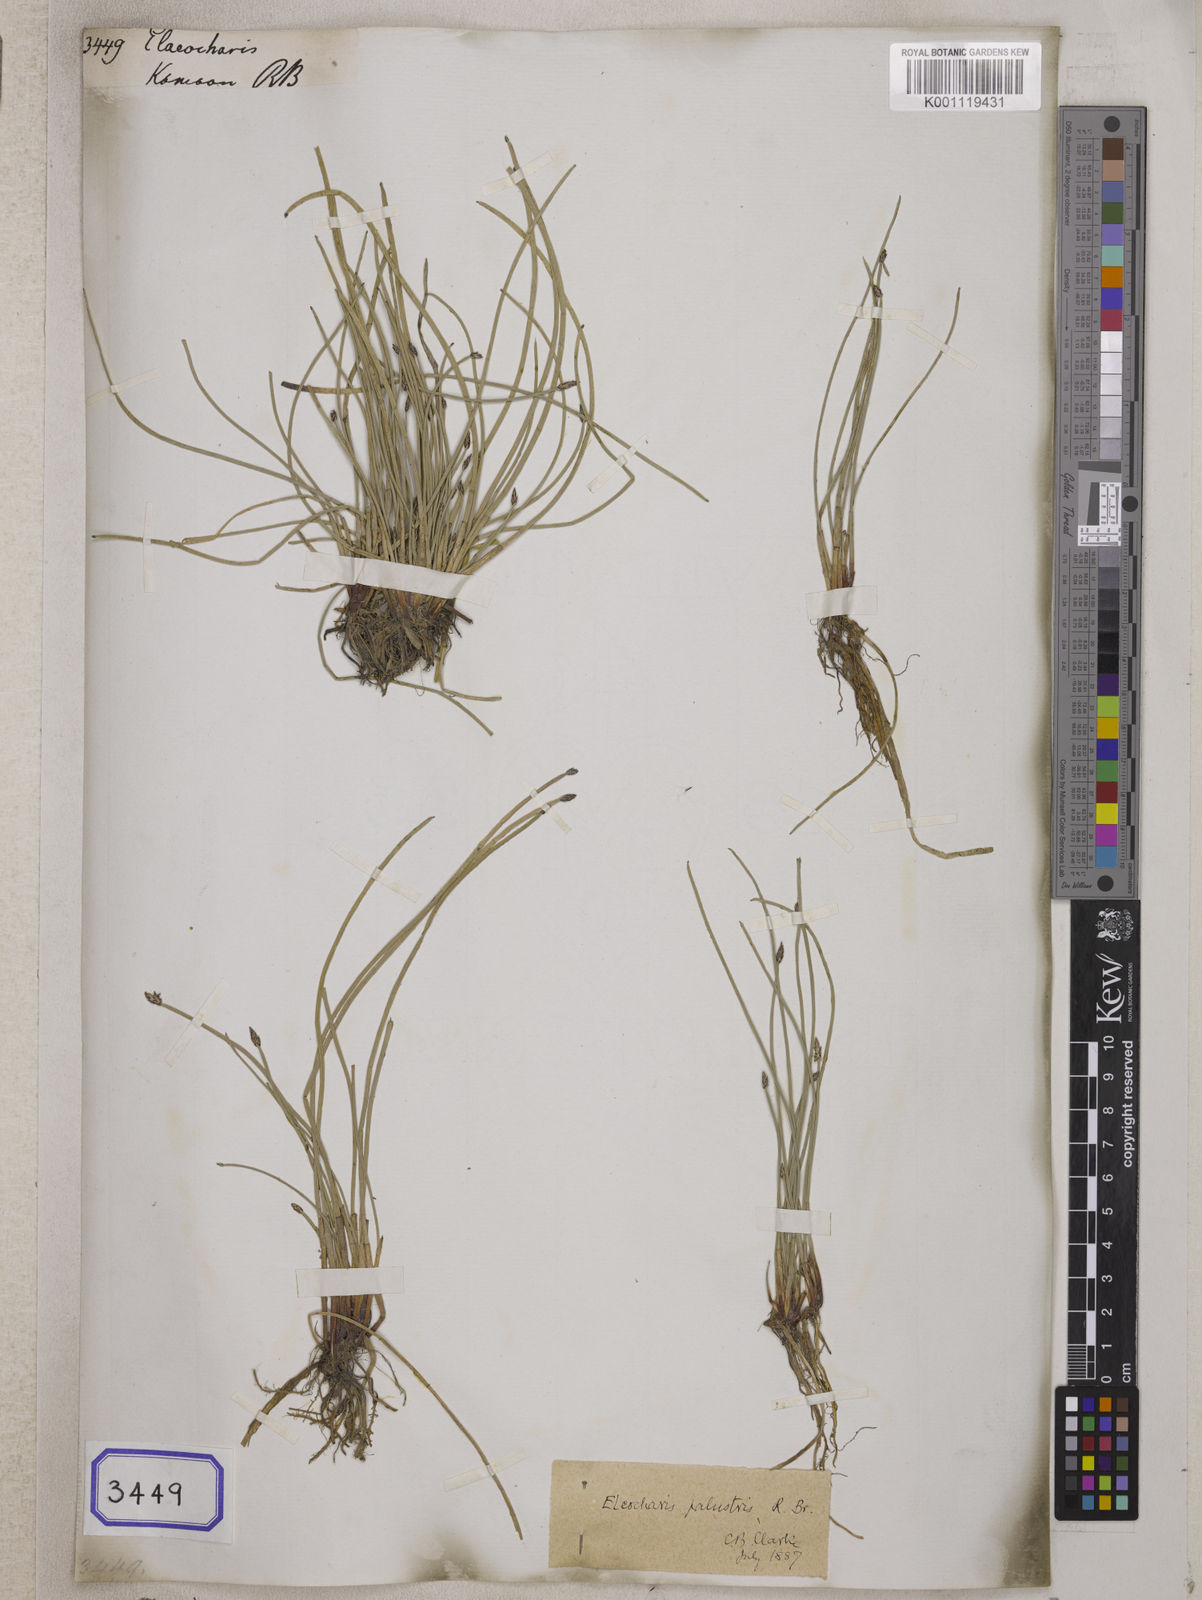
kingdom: Plantae
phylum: Tracheophyta
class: Liliopsida
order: Poales
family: Cyperaceae
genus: Eleocharis
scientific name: Eleocharis
